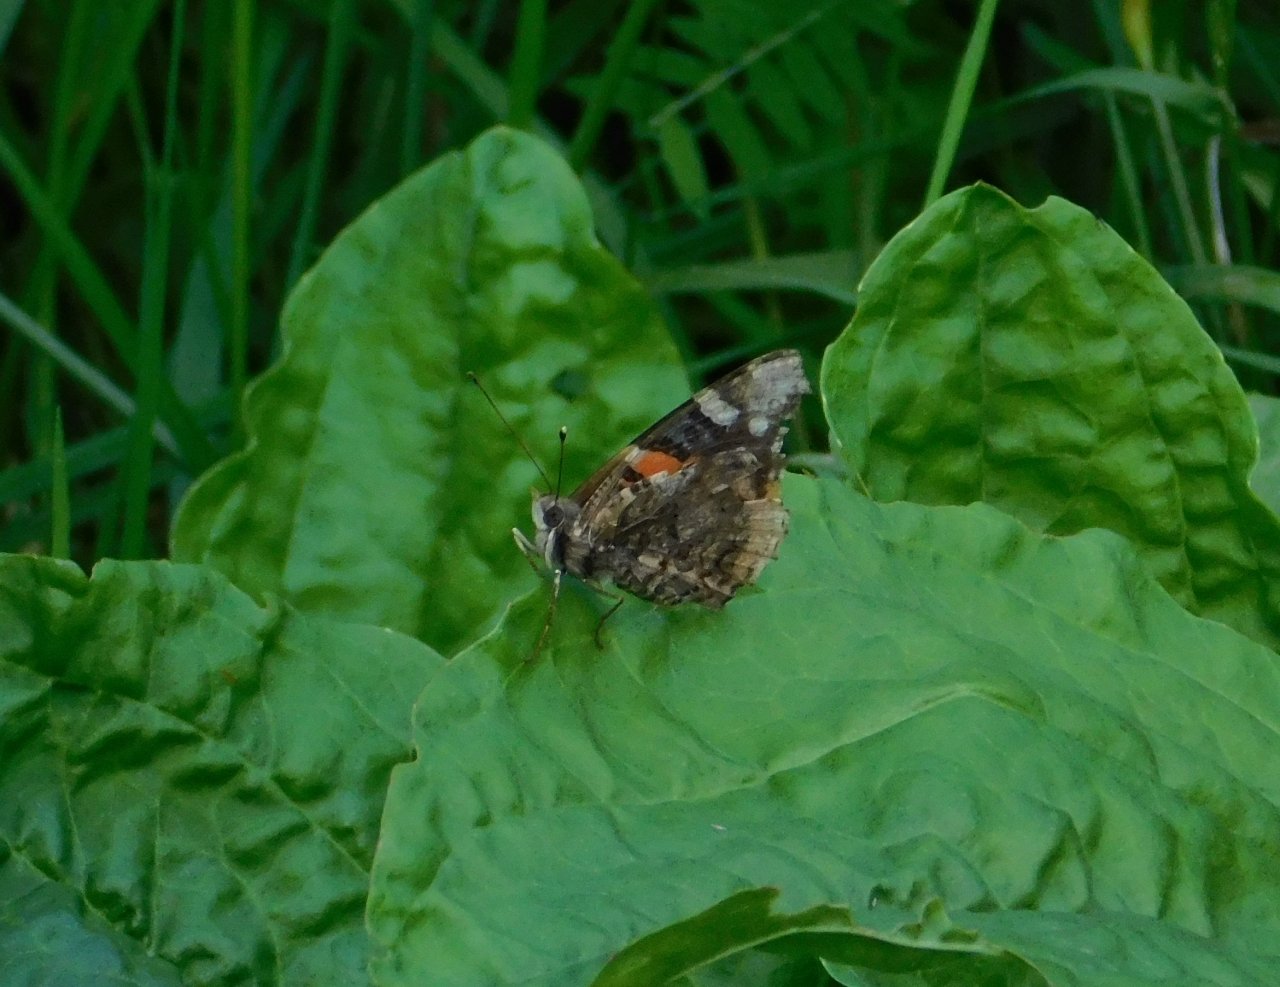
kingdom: Animalia
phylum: Arthropoda
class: Insecta
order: Lepidoptera
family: Nymphalidae
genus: Vanessa
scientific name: Vanessa atalanta
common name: Red Admiral
